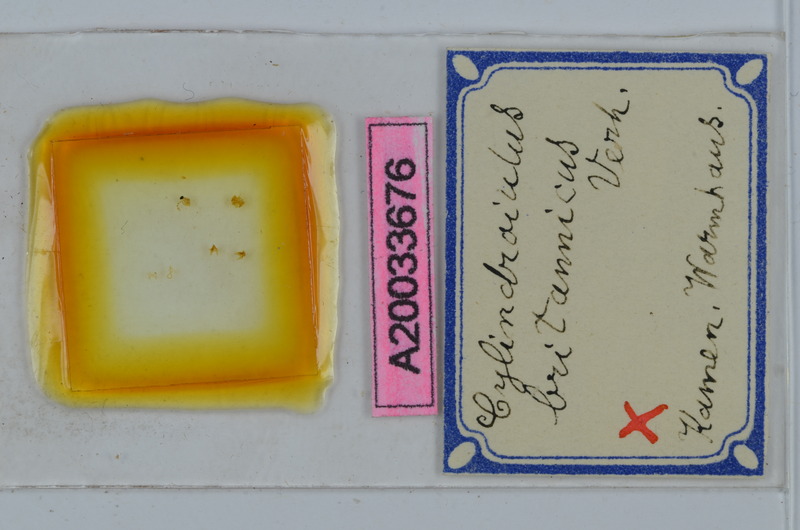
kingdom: Animalia
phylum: Arthropoda
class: Diplopoda
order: Julida
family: Julidae
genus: Cylindroiulus
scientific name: Cylindroiulus britannicus
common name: Lesser glasshouse millipede
